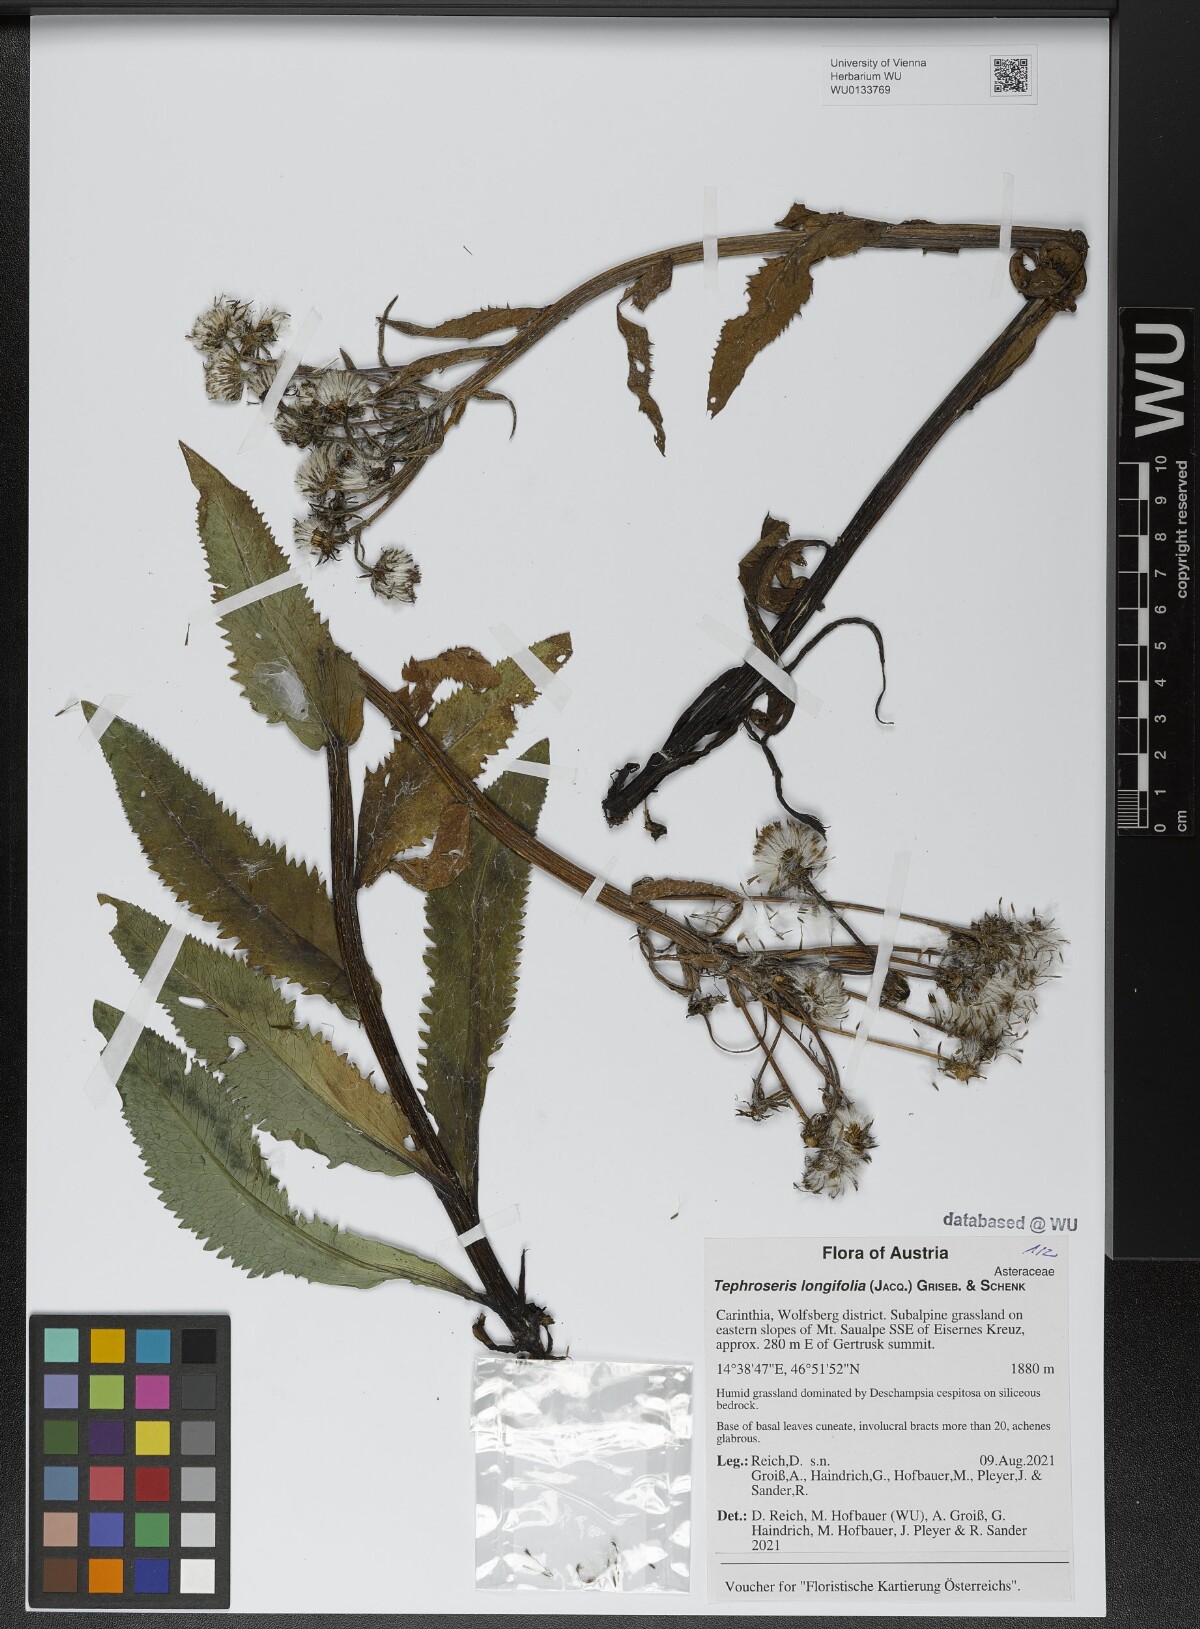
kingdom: Plantae
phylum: Tracheophyta
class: Magnoliopsida
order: Asterales
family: Asteraceae
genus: Tephroseris
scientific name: Tephroseris longifolia
